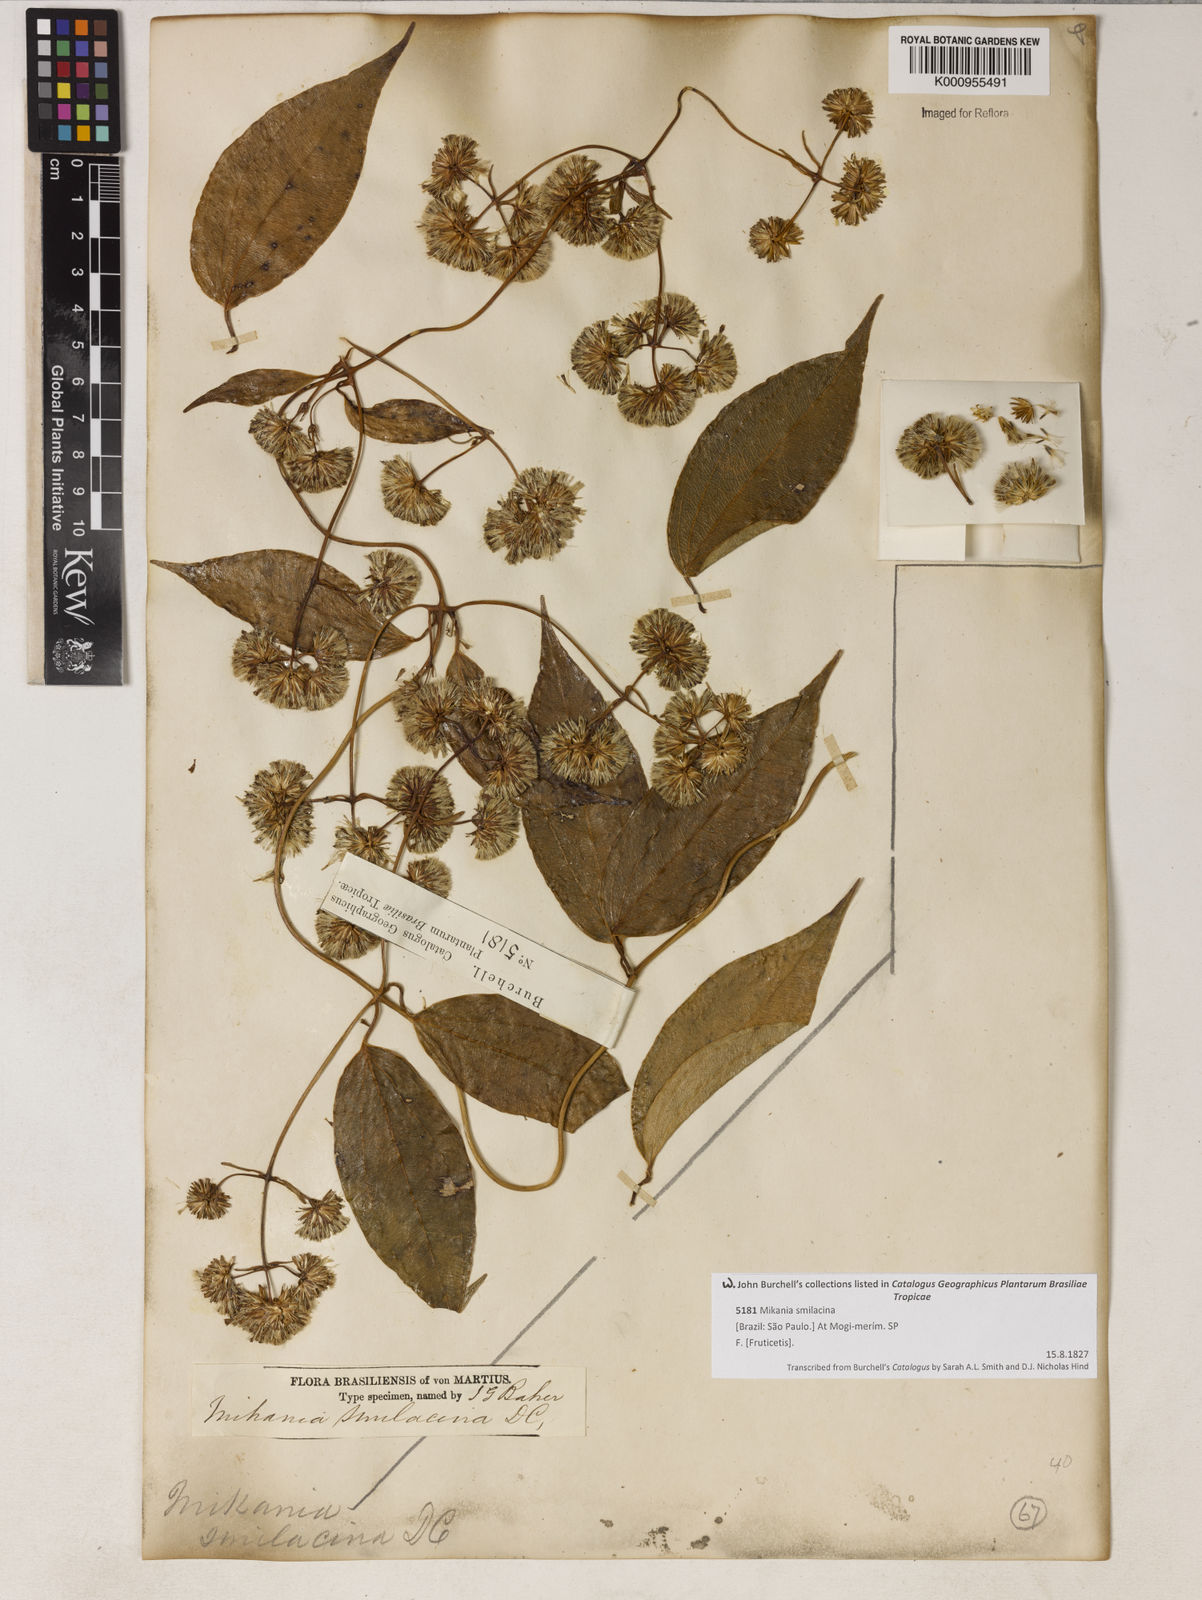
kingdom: Plantae
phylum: Tracheophyta
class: Magnoliopsida
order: Asterales
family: Asteraceae
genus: Mikania
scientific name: Mikania rufescens
